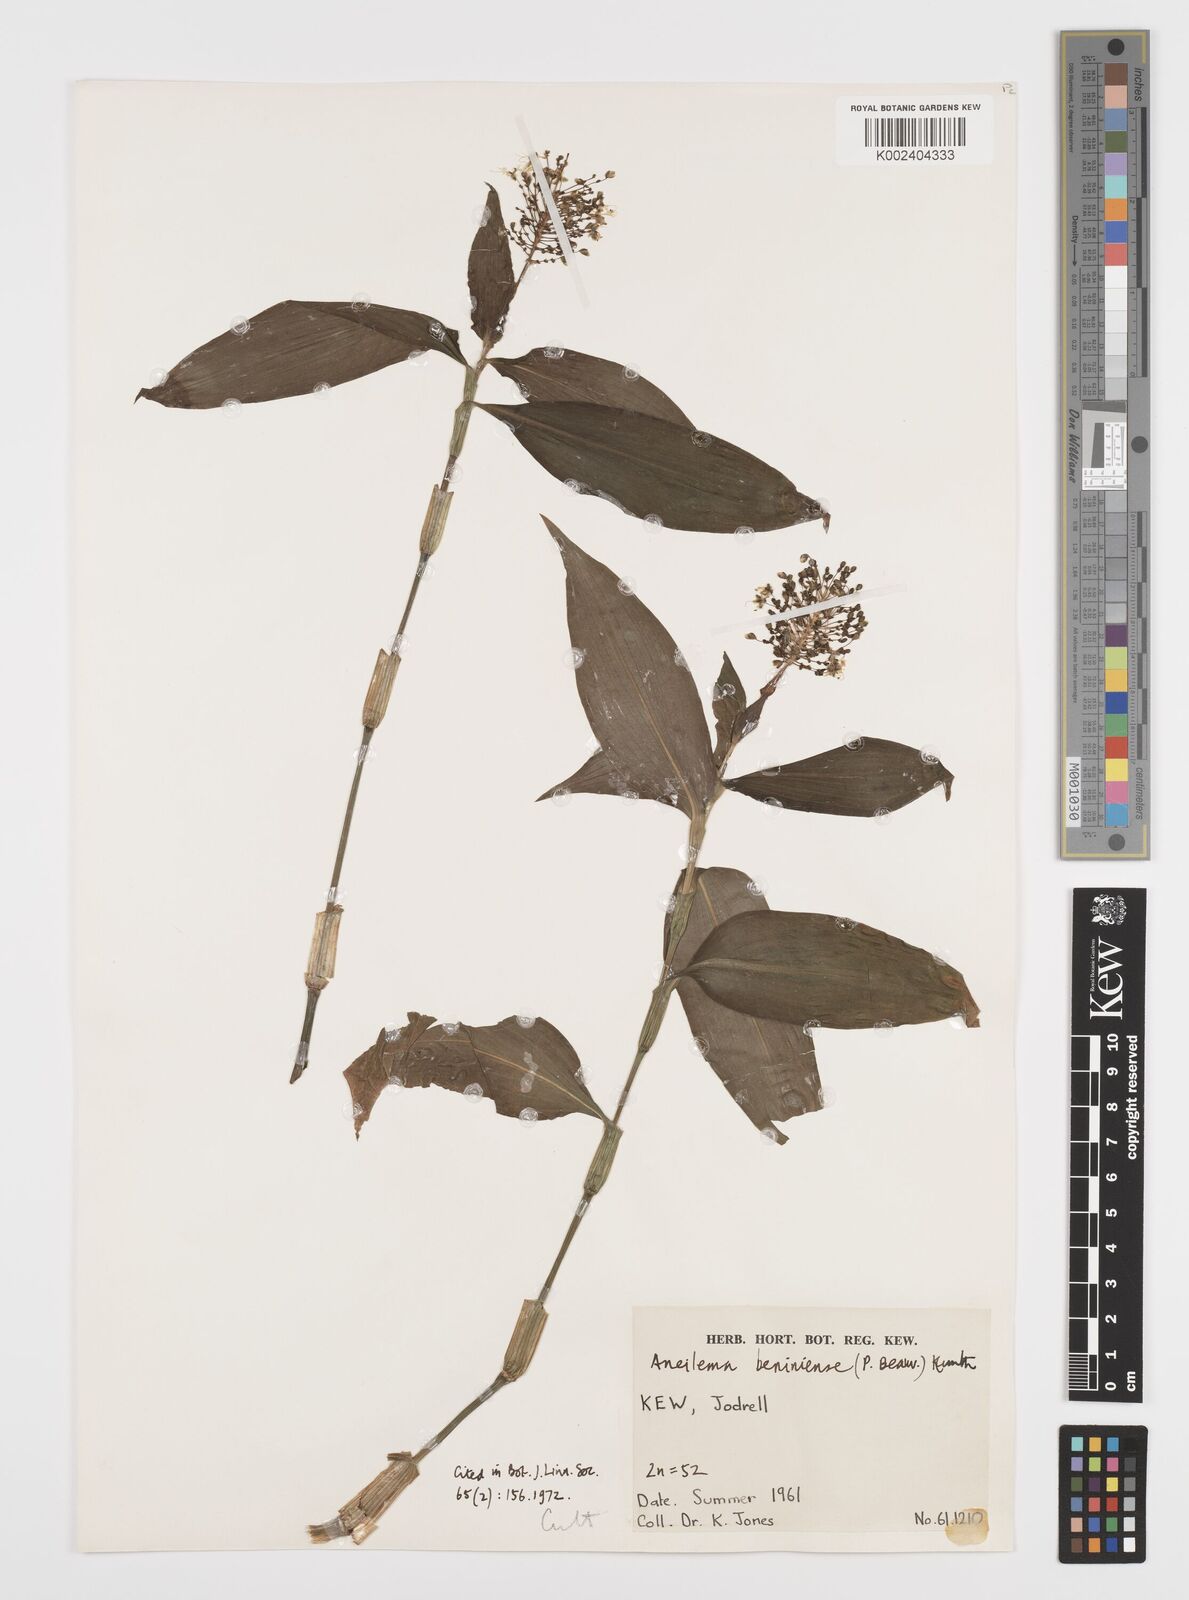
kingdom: Plantae
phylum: Tracheophyta
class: Liliopsida
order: Commelinales
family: Commelinaceae
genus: Aneilema
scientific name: Aneilema beniniense
